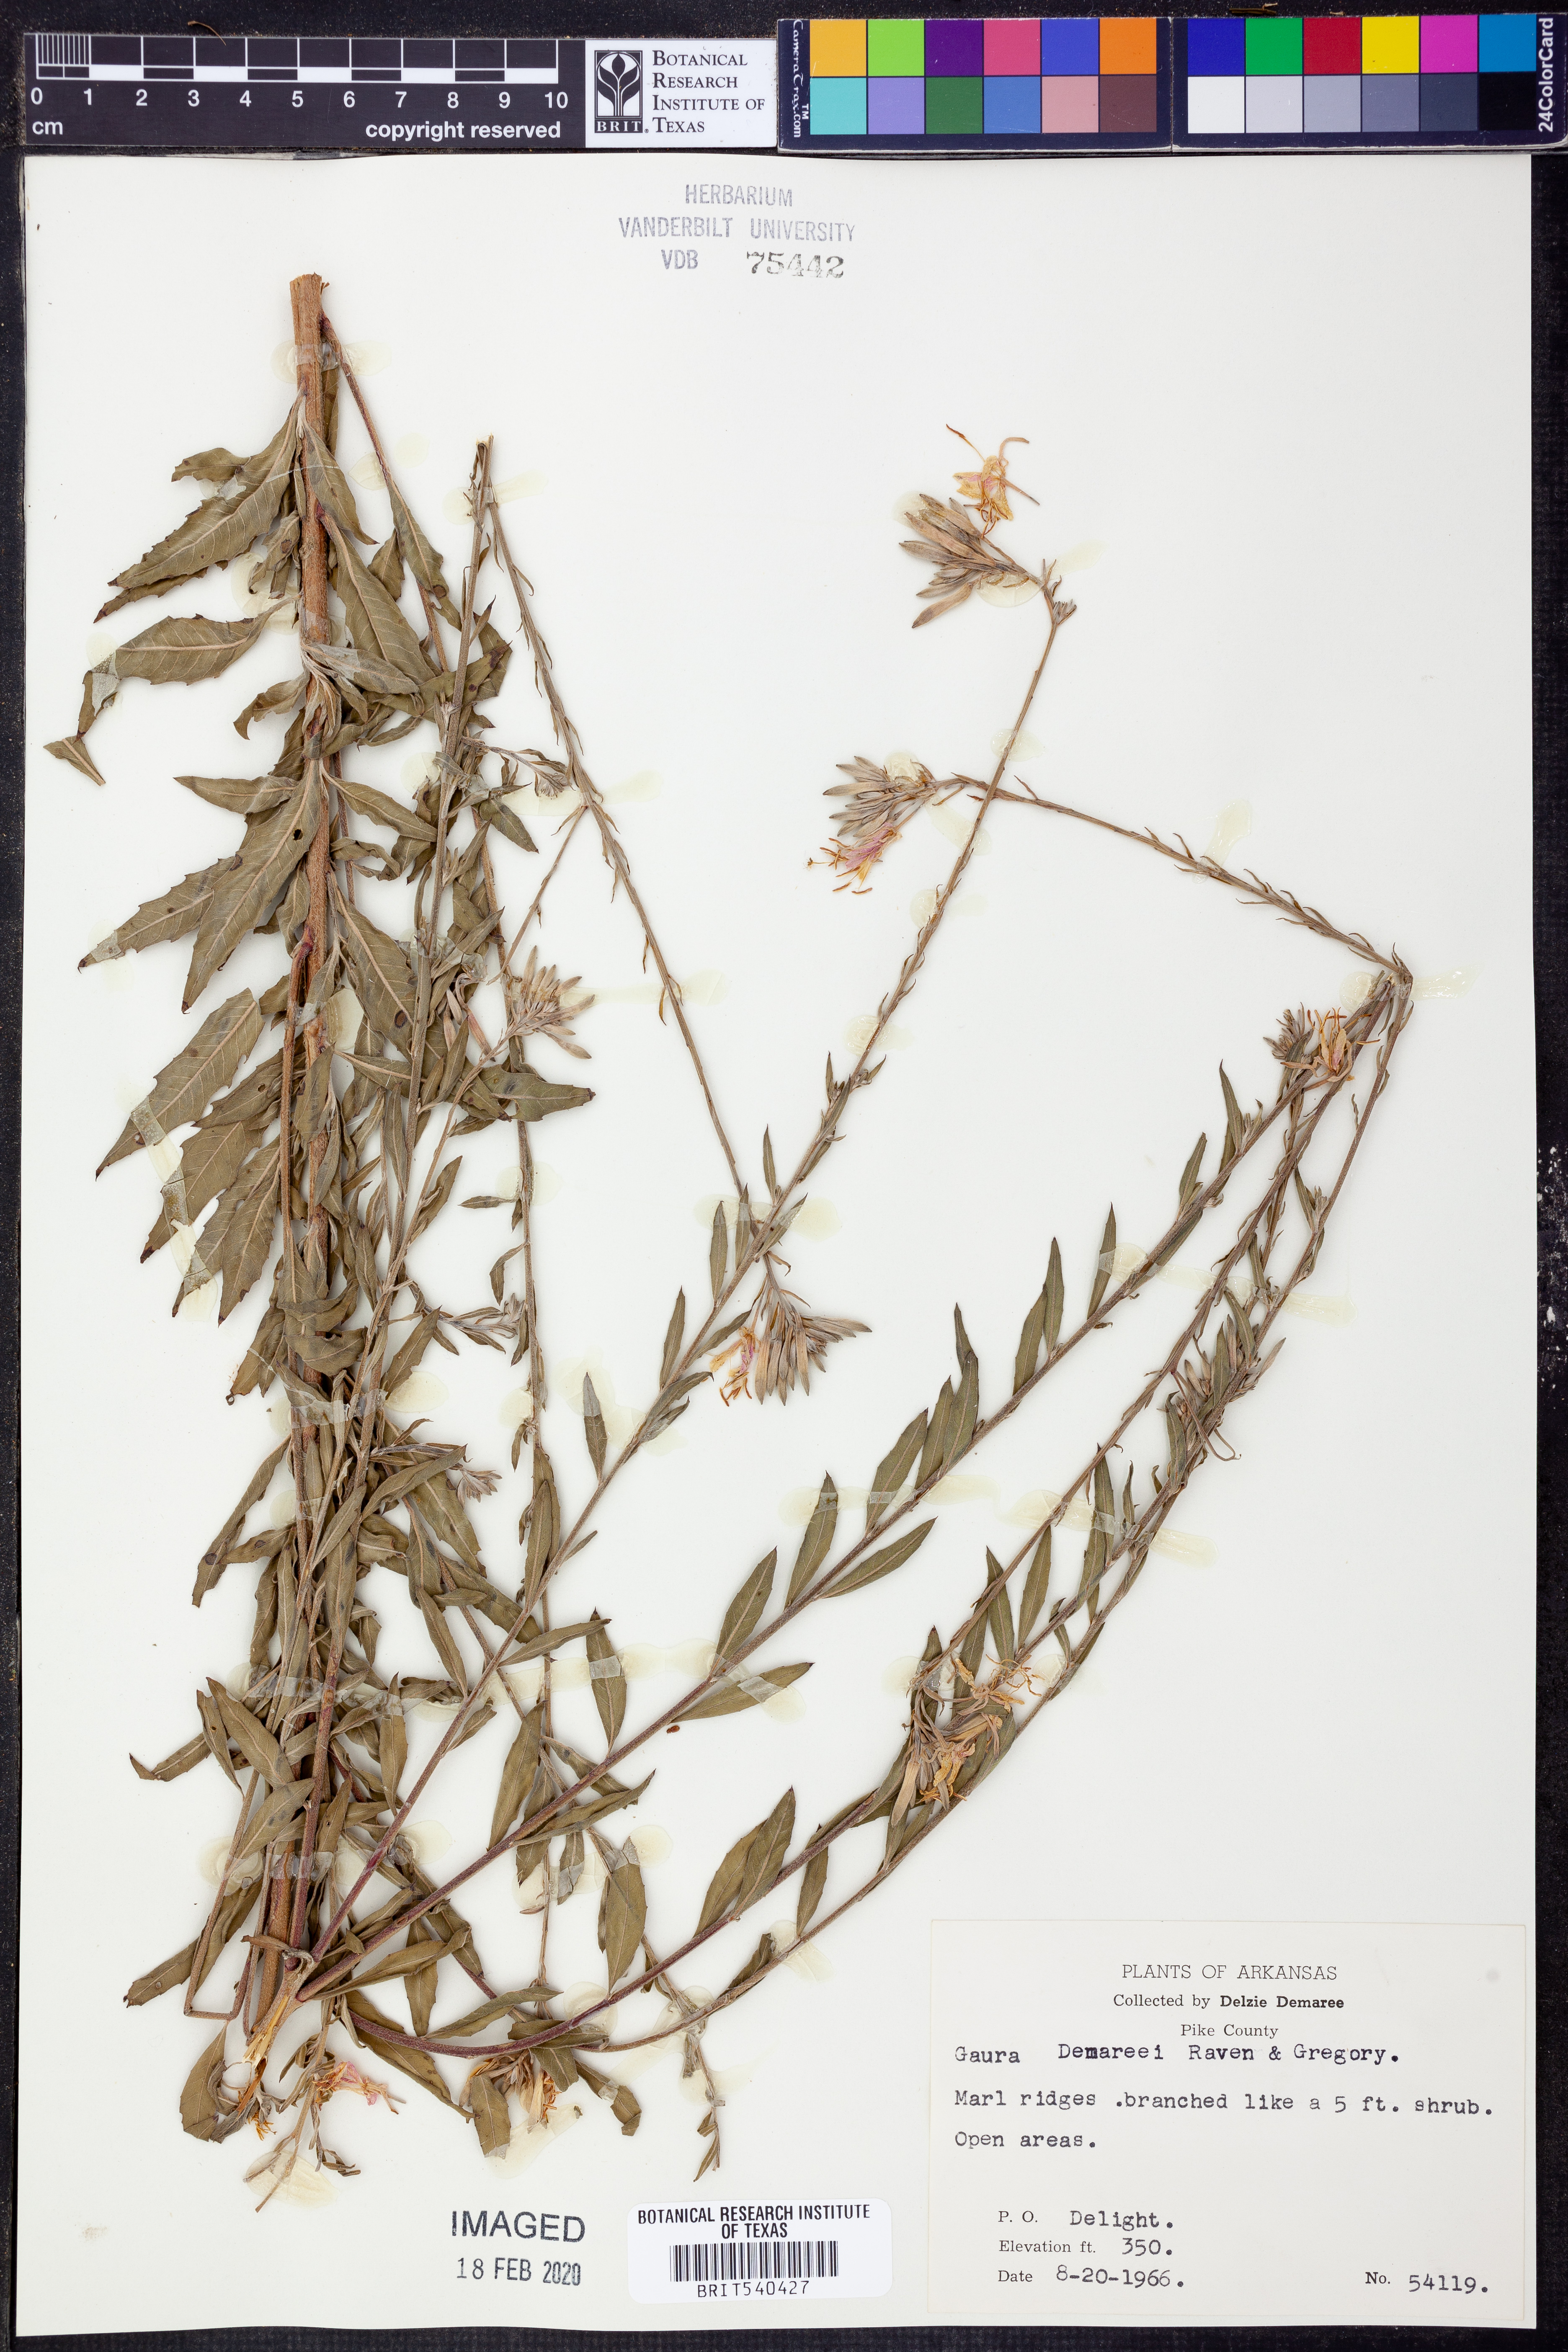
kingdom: Plantae
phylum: Tracheophyta
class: Magnoliopsida
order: Myrtales
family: Onagraceae
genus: Oenothera
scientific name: Oenothera demareei
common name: Demaree's beeblossom
